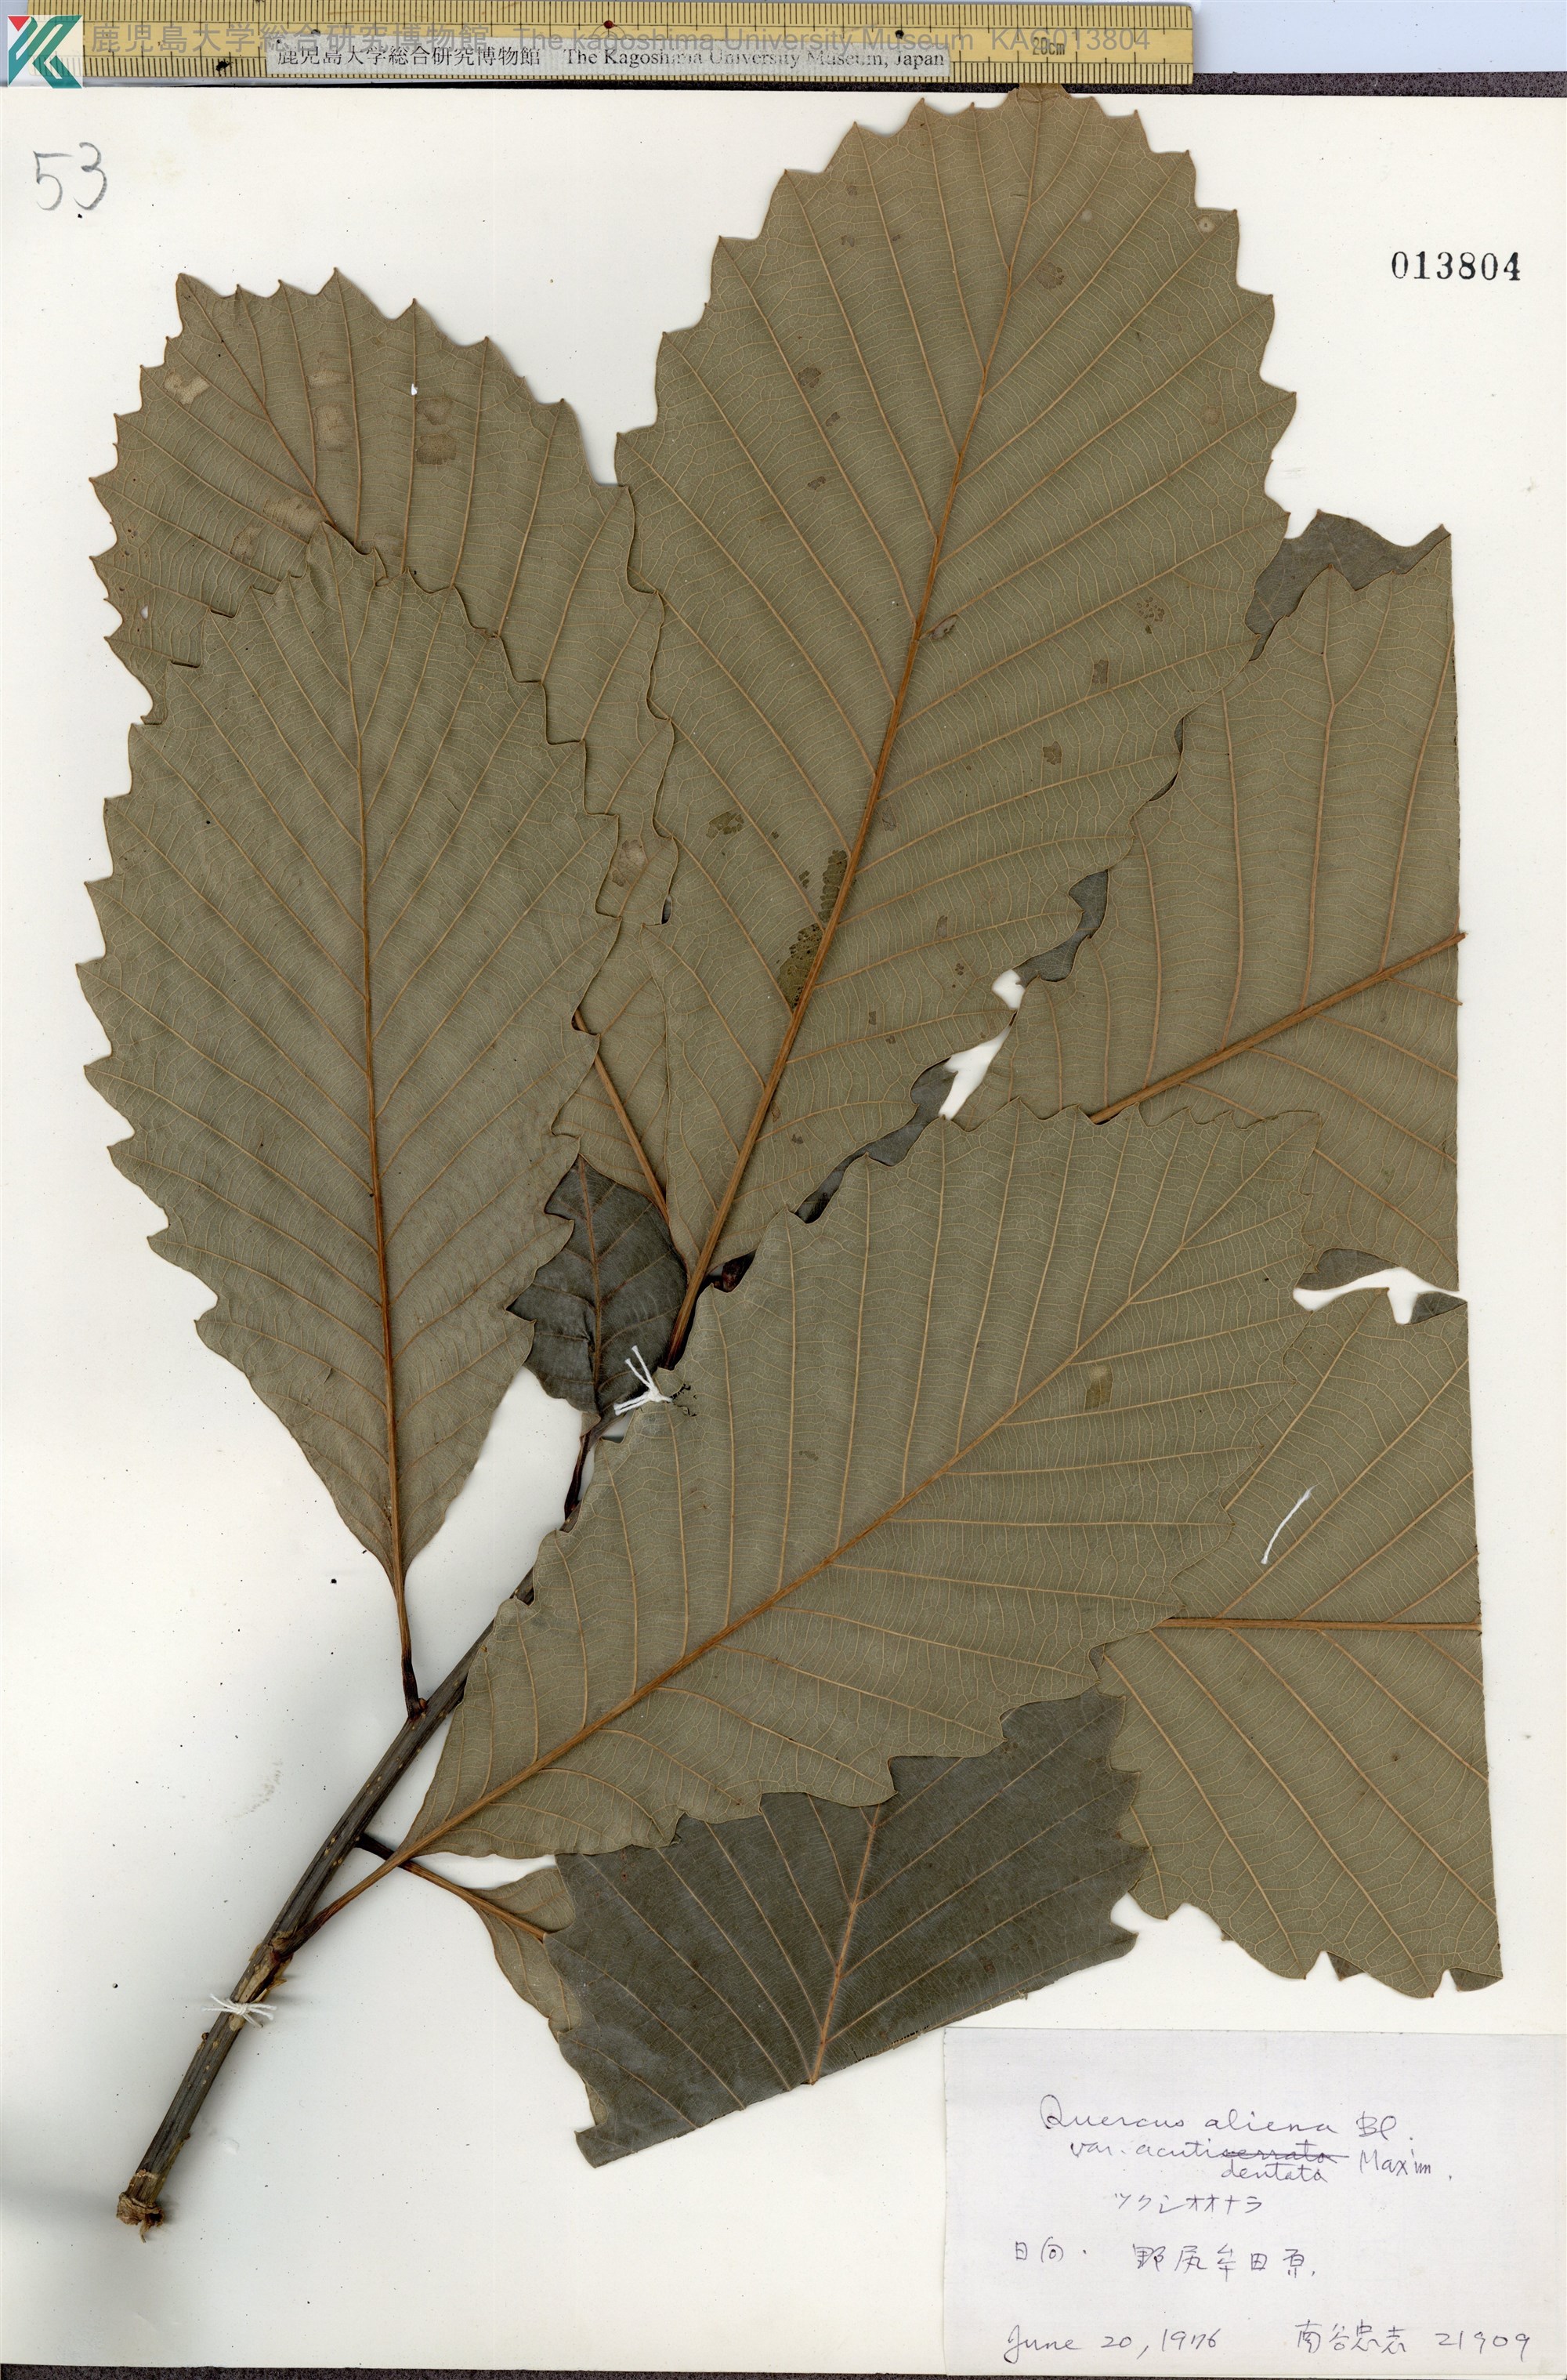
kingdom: Plantae
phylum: Tracheophyta
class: Magnoliopsida
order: Fagales
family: Fagaceae
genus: Quercus
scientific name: Quercus aliena
